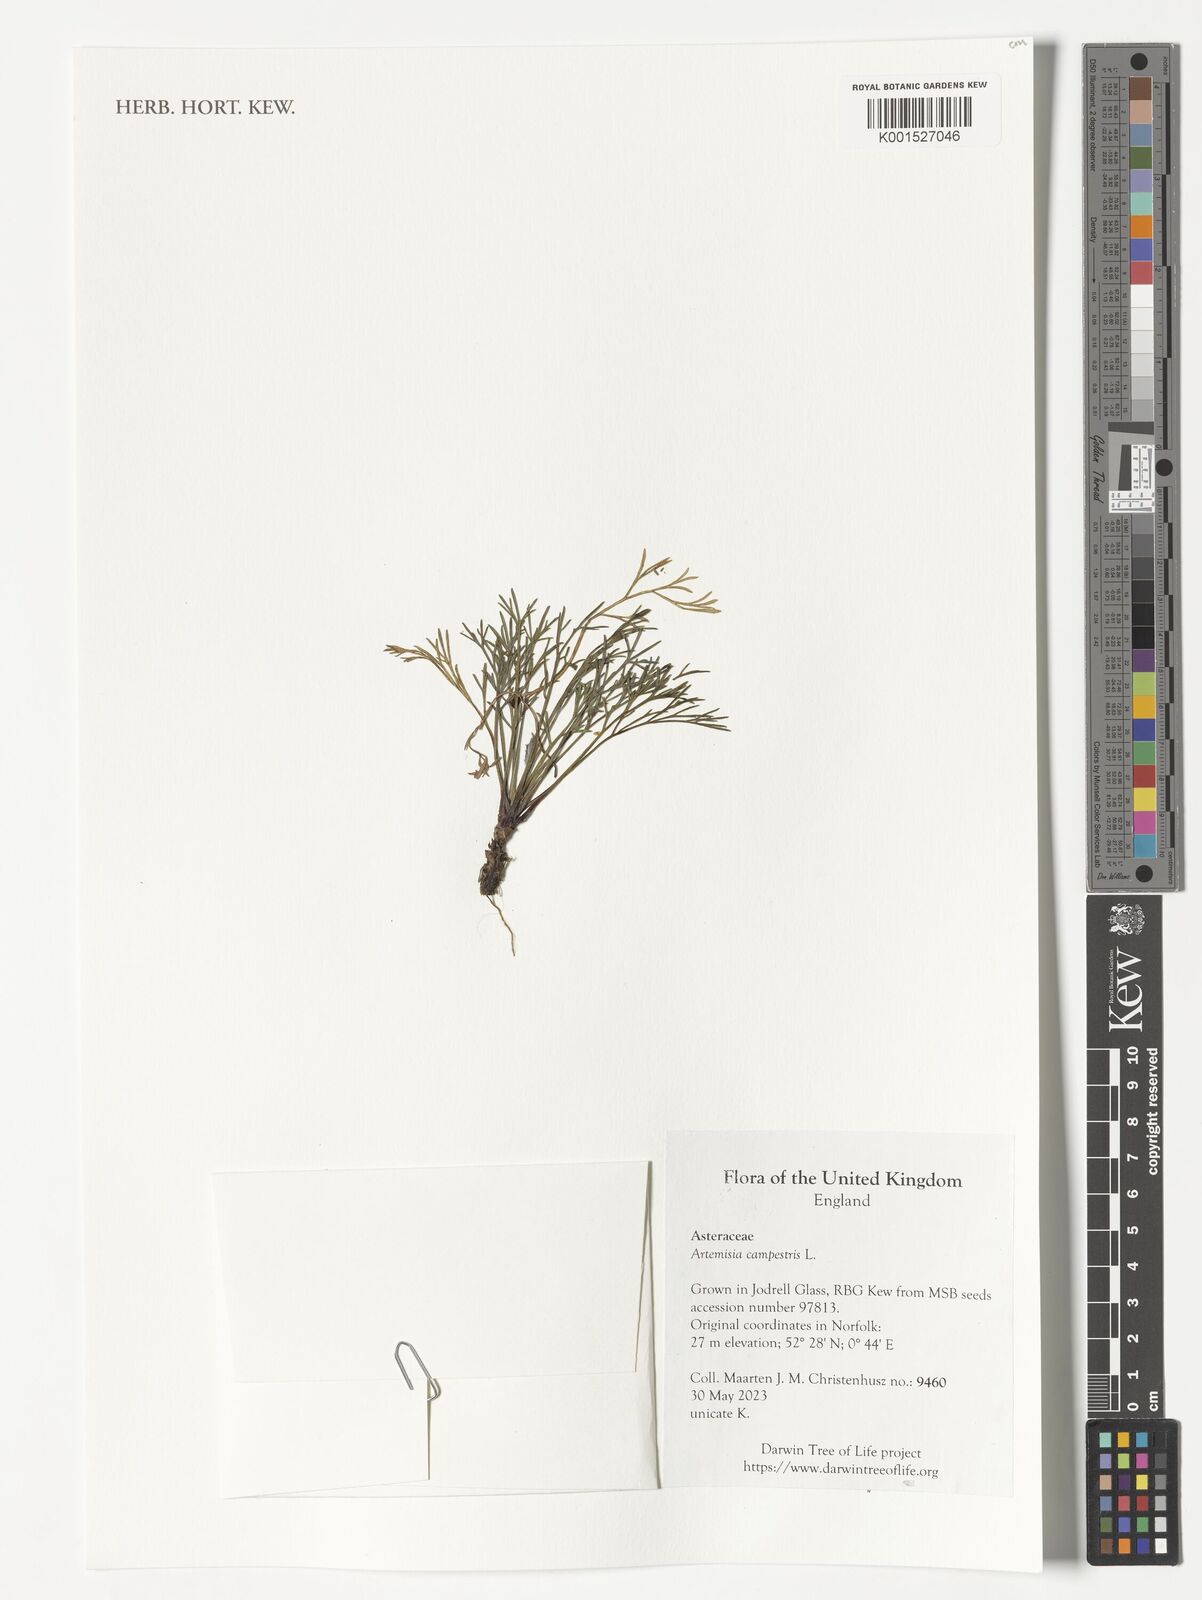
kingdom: Plantae
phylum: Tracheophyta
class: Magnoliopsida
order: Asterales
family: Asteraceae
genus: Artemisia
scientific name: Artemisia campestris
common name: Field wormwood
